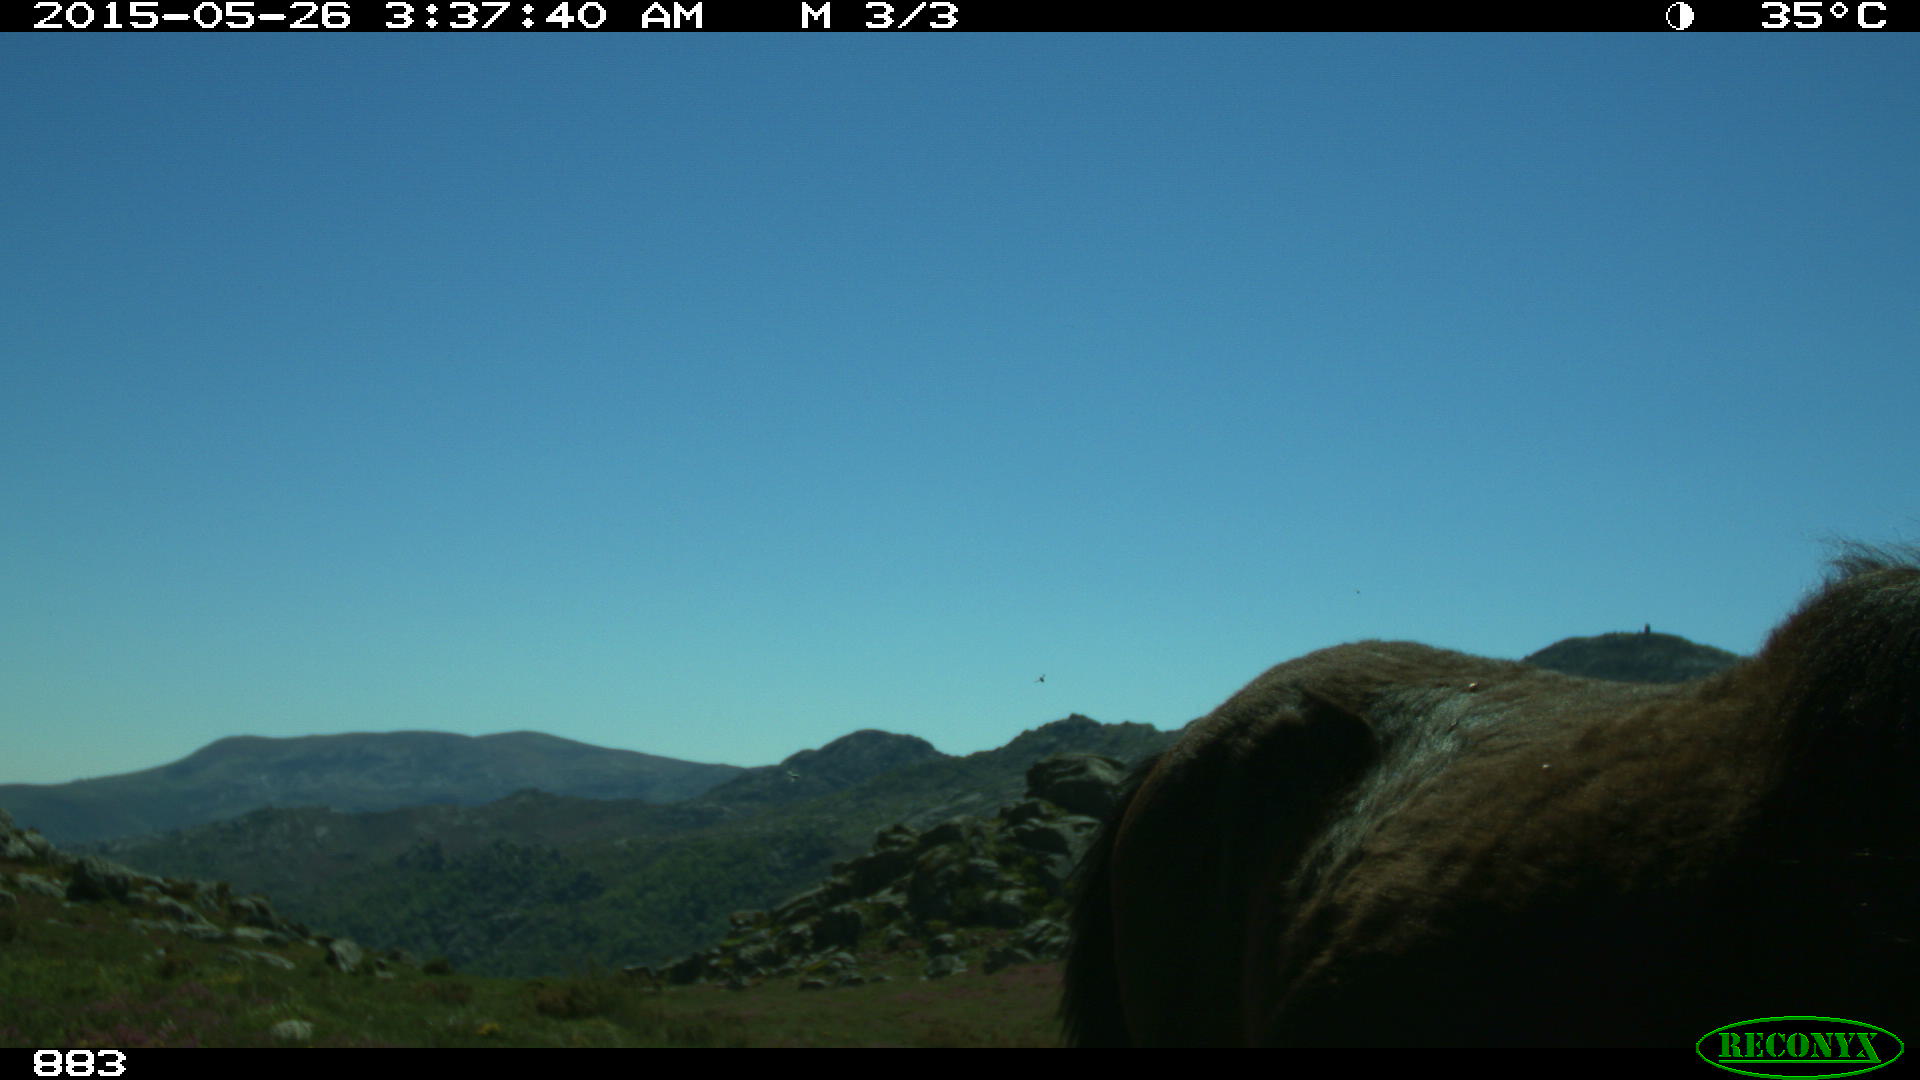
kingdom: Animalia
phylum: Chordata
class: Mammalia
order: Perissodactyla
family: Equidae
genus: Equus
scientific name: Equus caballus
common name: Horse
